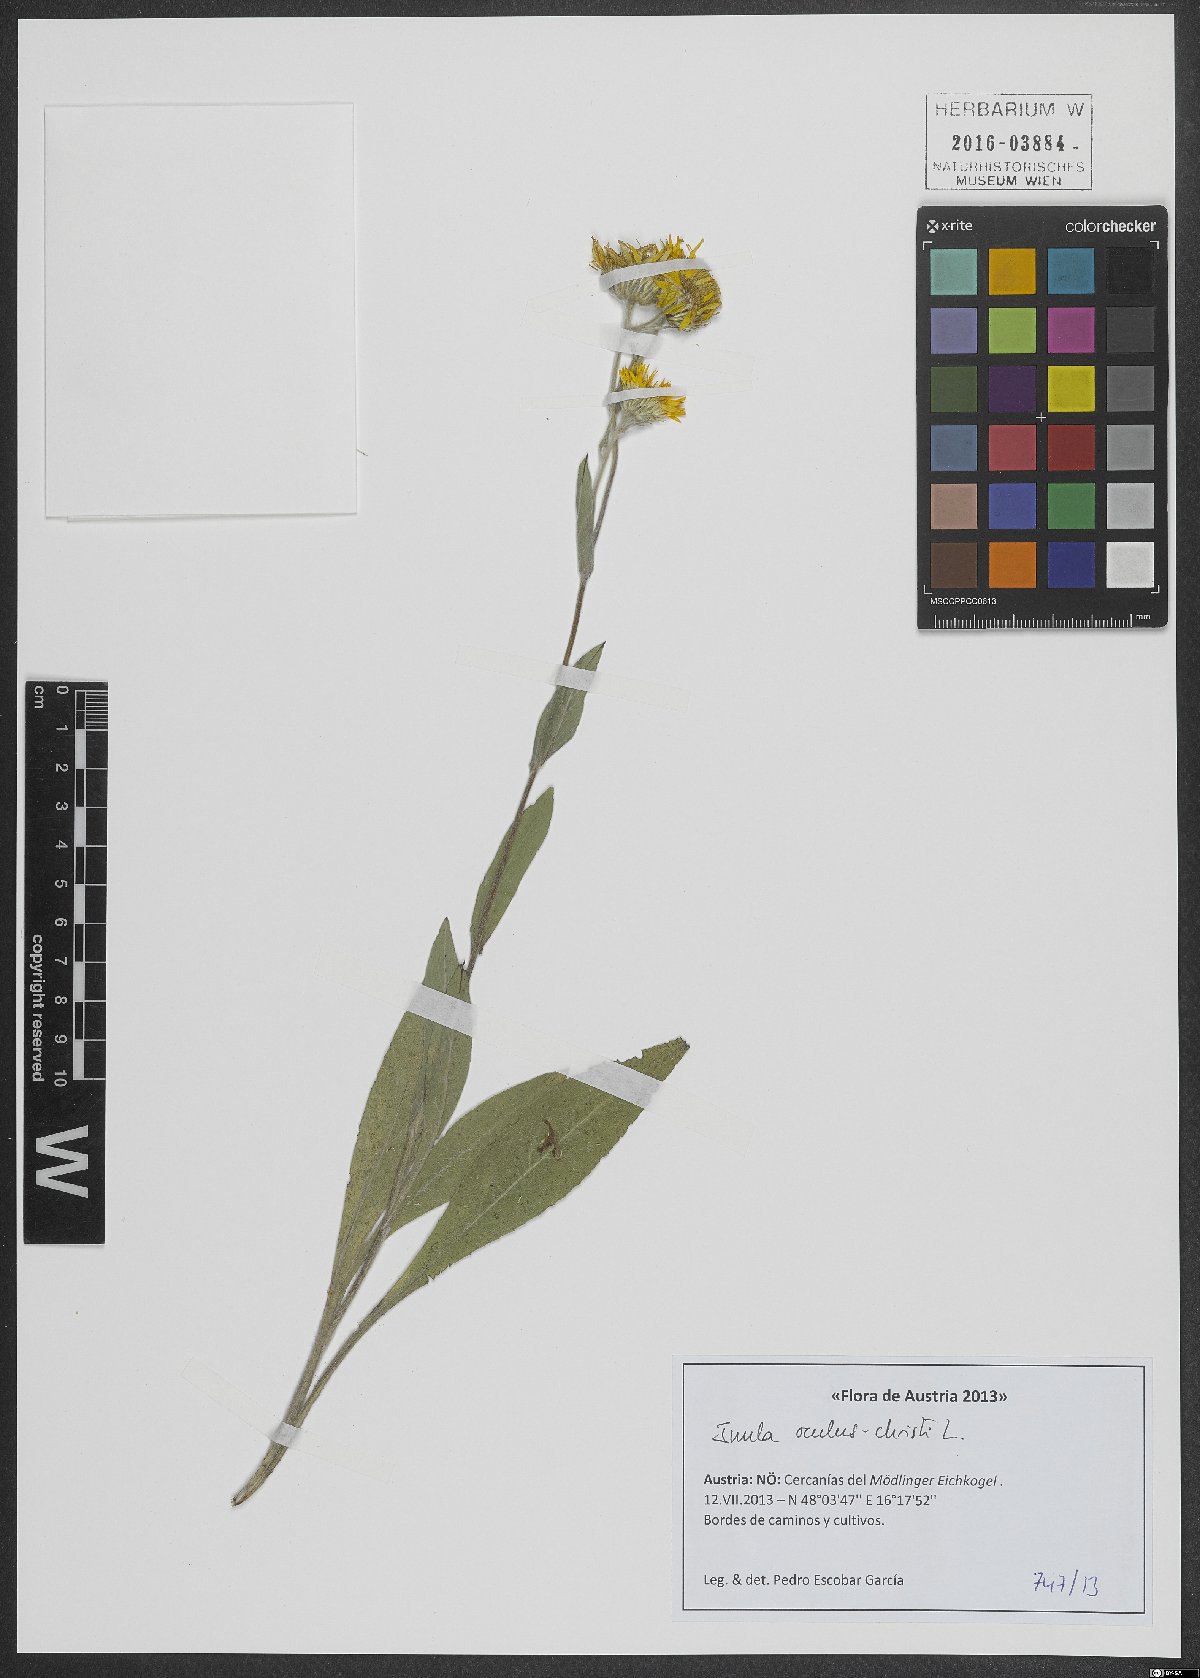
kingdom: Plantae
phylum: Tracheophyta
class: Magnoliopsida
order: Asterales
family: Asteraceae
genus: Pentanema
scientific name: Pentanema oculus-christi
